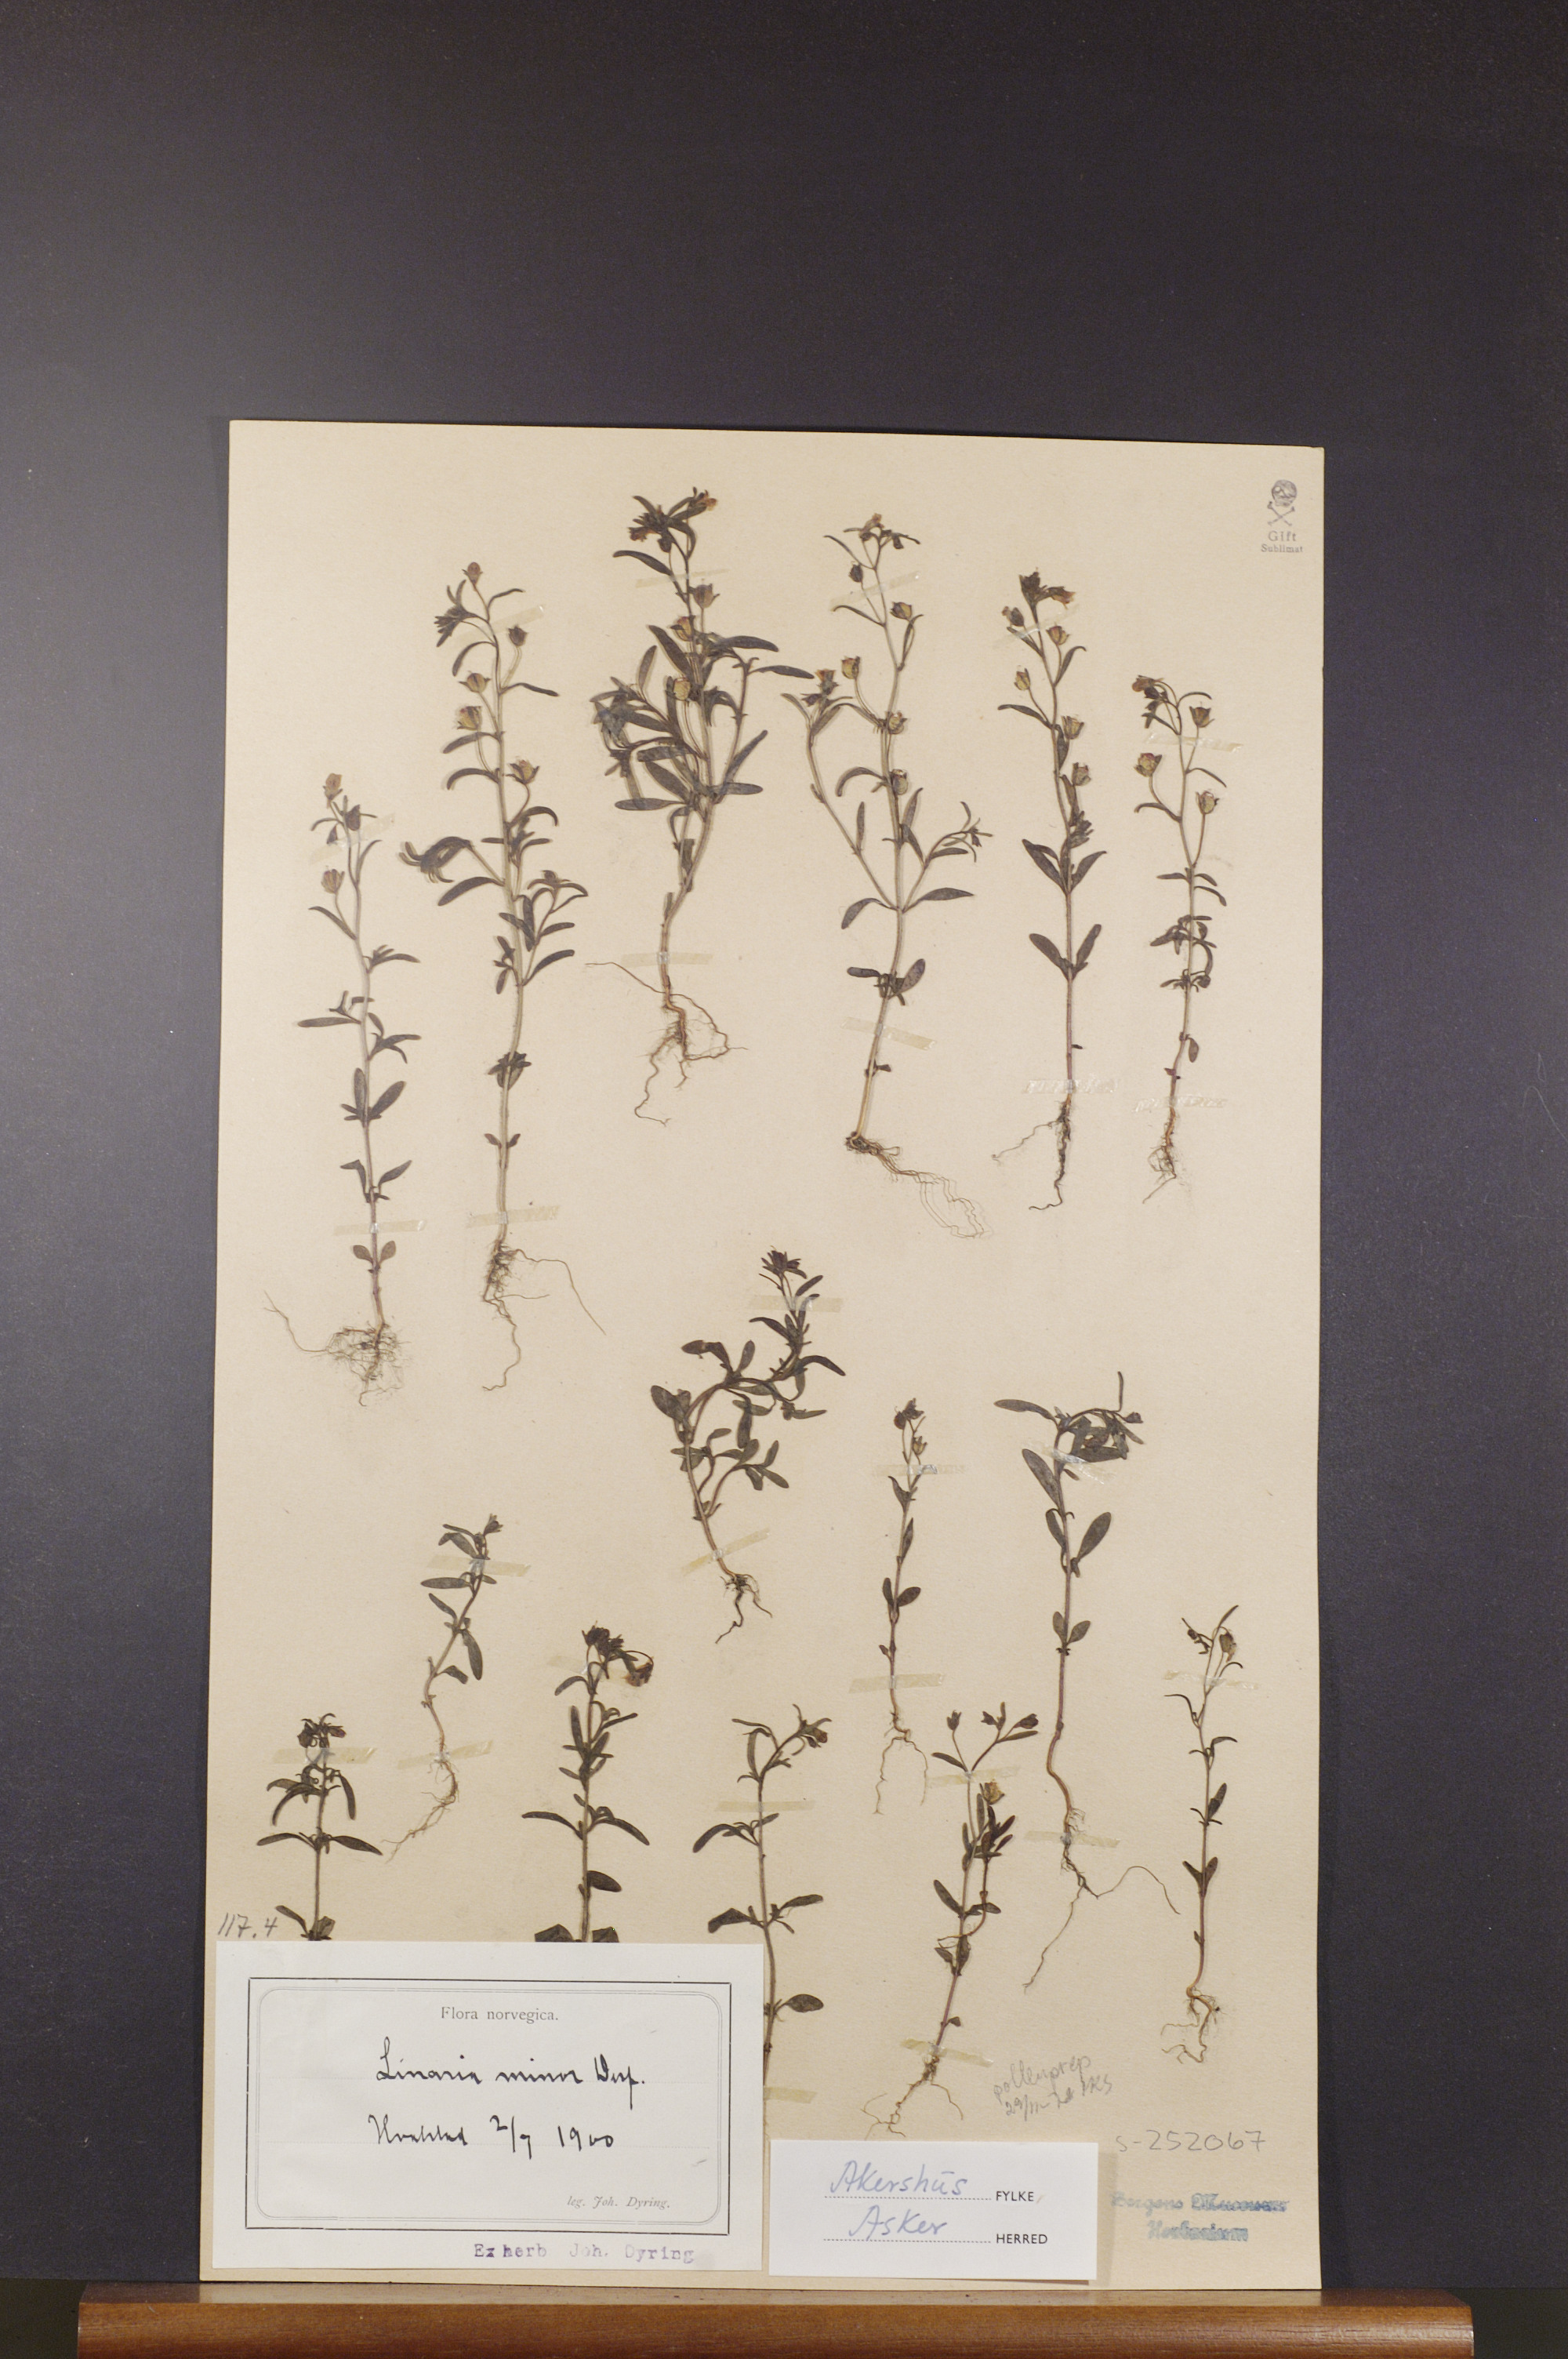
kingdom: Plantae
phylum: Tracheophyta
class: Magnoliopsida
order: Lamiales
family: Plantaginaceae
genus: Chaenorhinum
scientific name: Chaenorhinum minus
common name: Dwarf snapdragon
